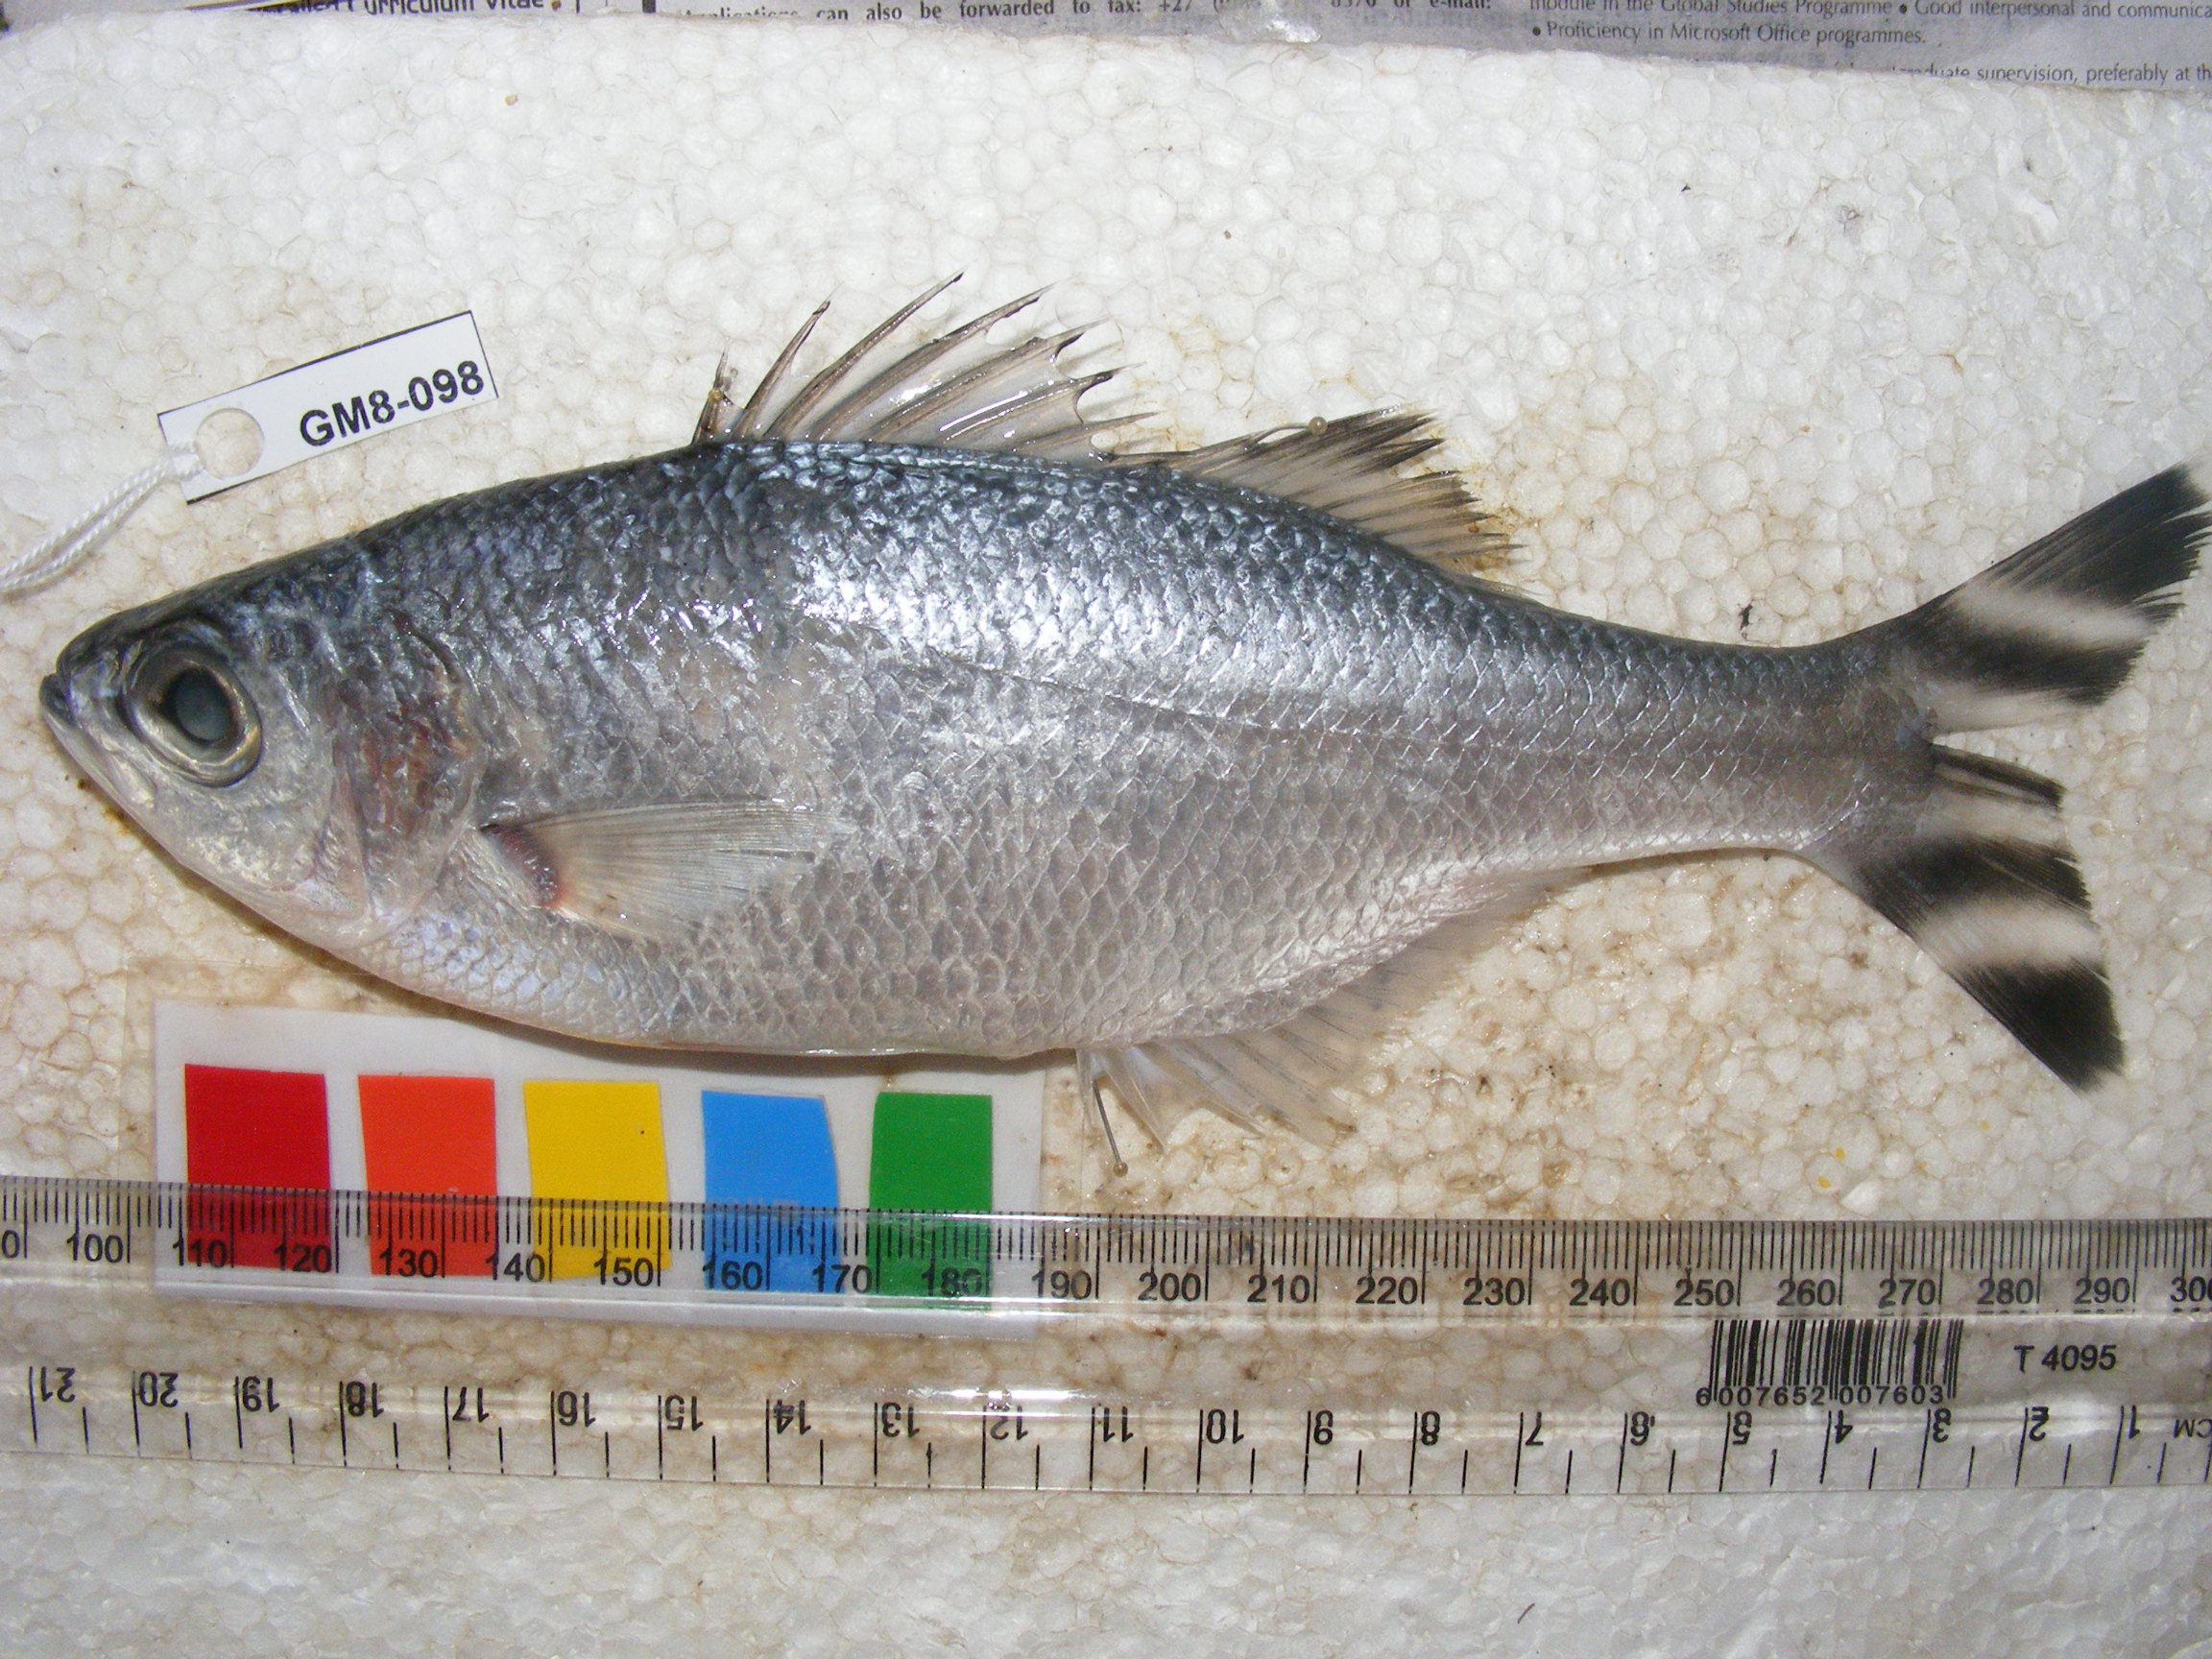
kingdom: Animalia
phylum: Chordata
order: Perciformes
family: Kuhliidae
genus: Kuhlia
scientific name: Kuhlia mugil
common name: Barred flagtail
